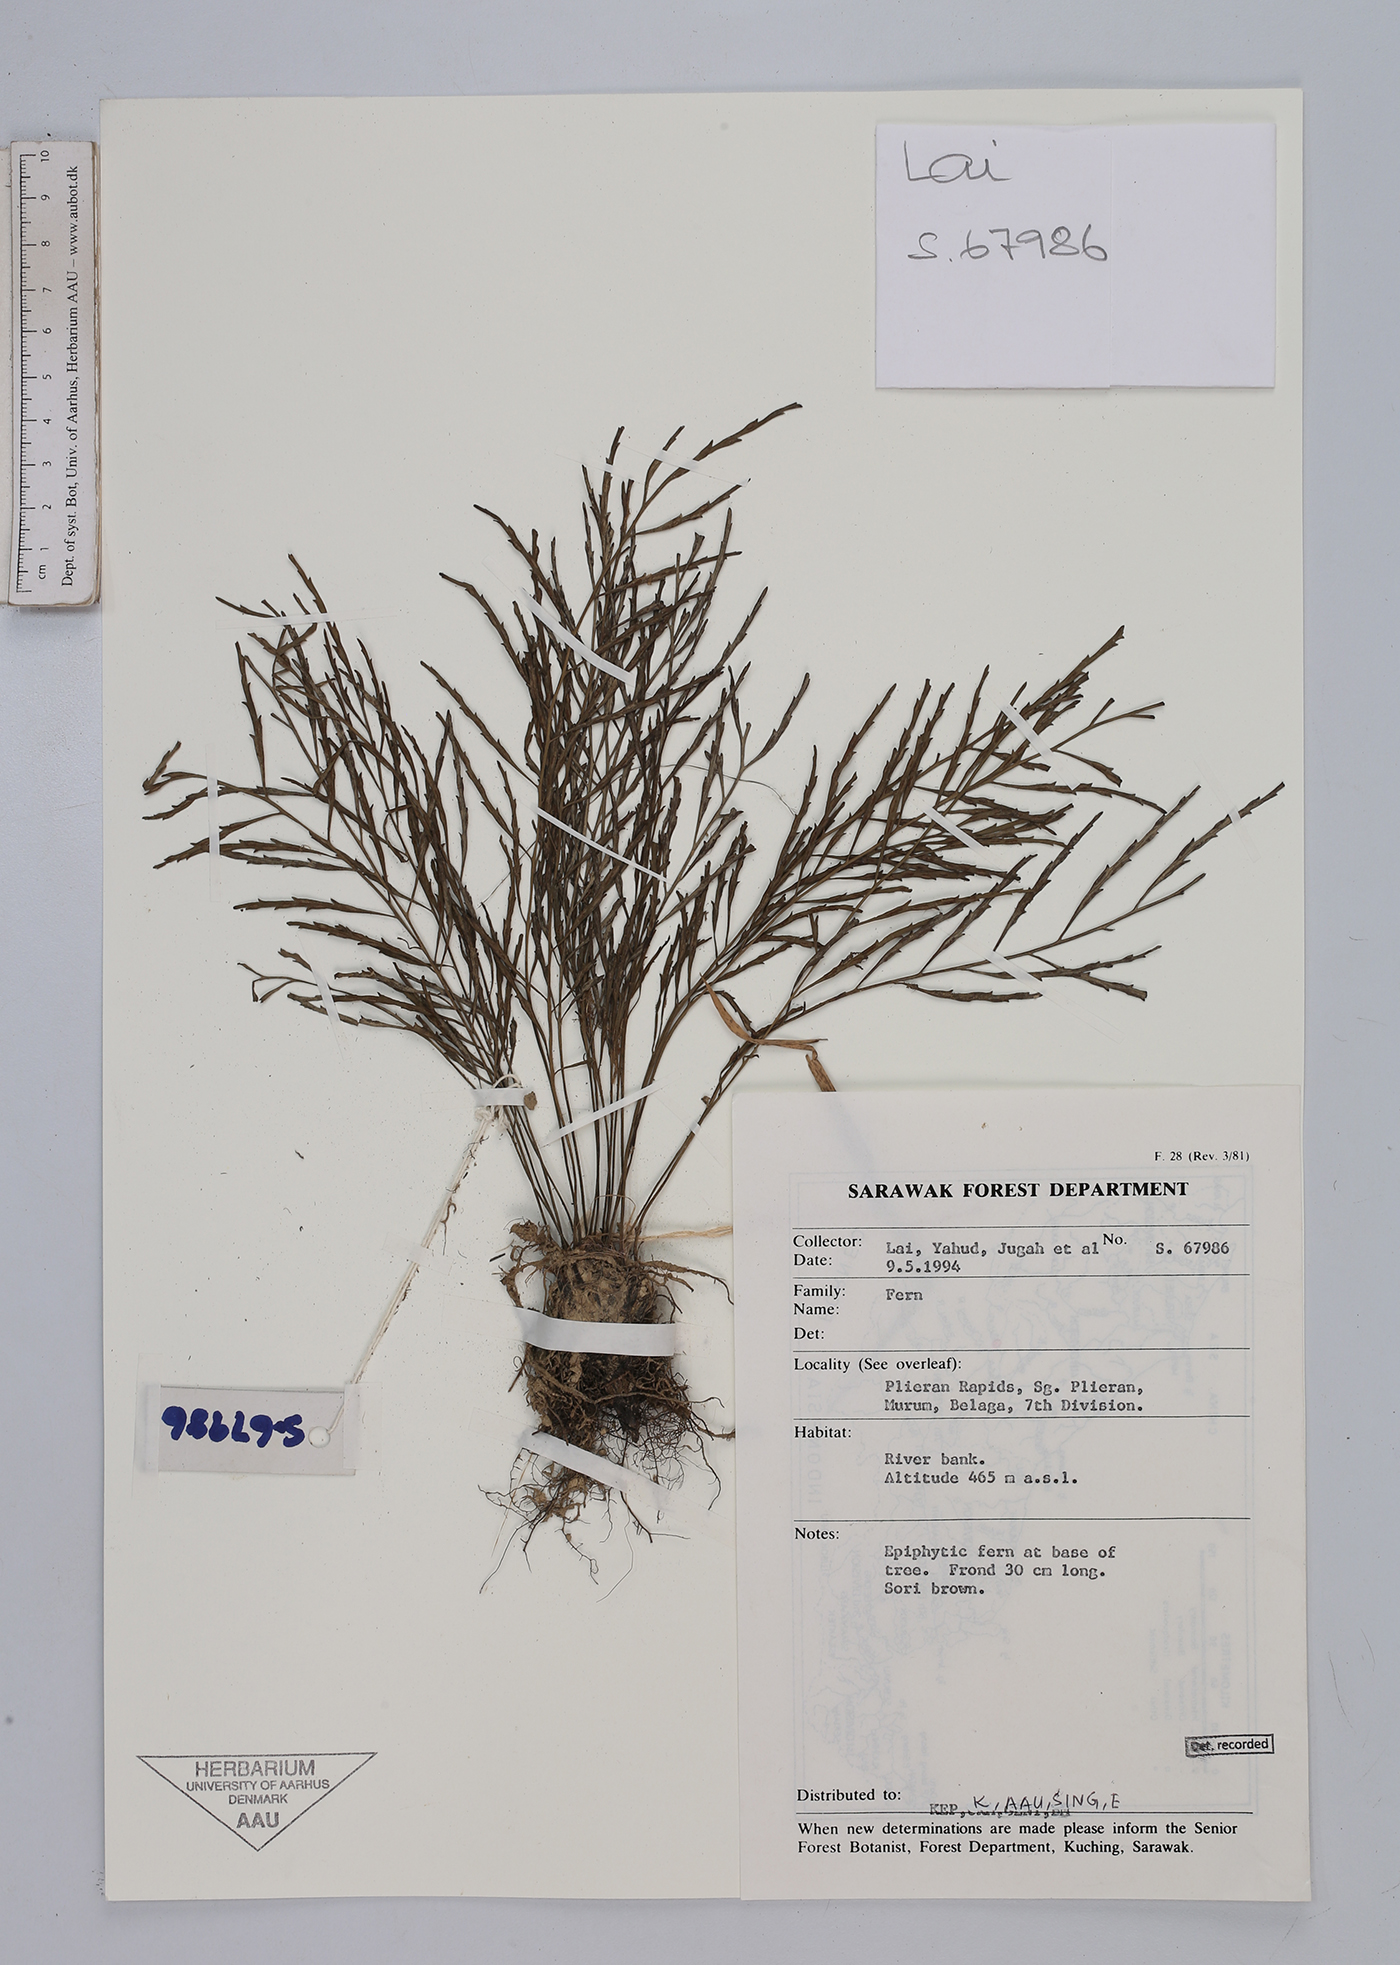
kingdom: Plantae
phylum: Tracheophyta
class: Polypodiopsida
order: Polypodiales
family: Aspleniaceae
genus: Asplenium
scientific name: Asplenium
